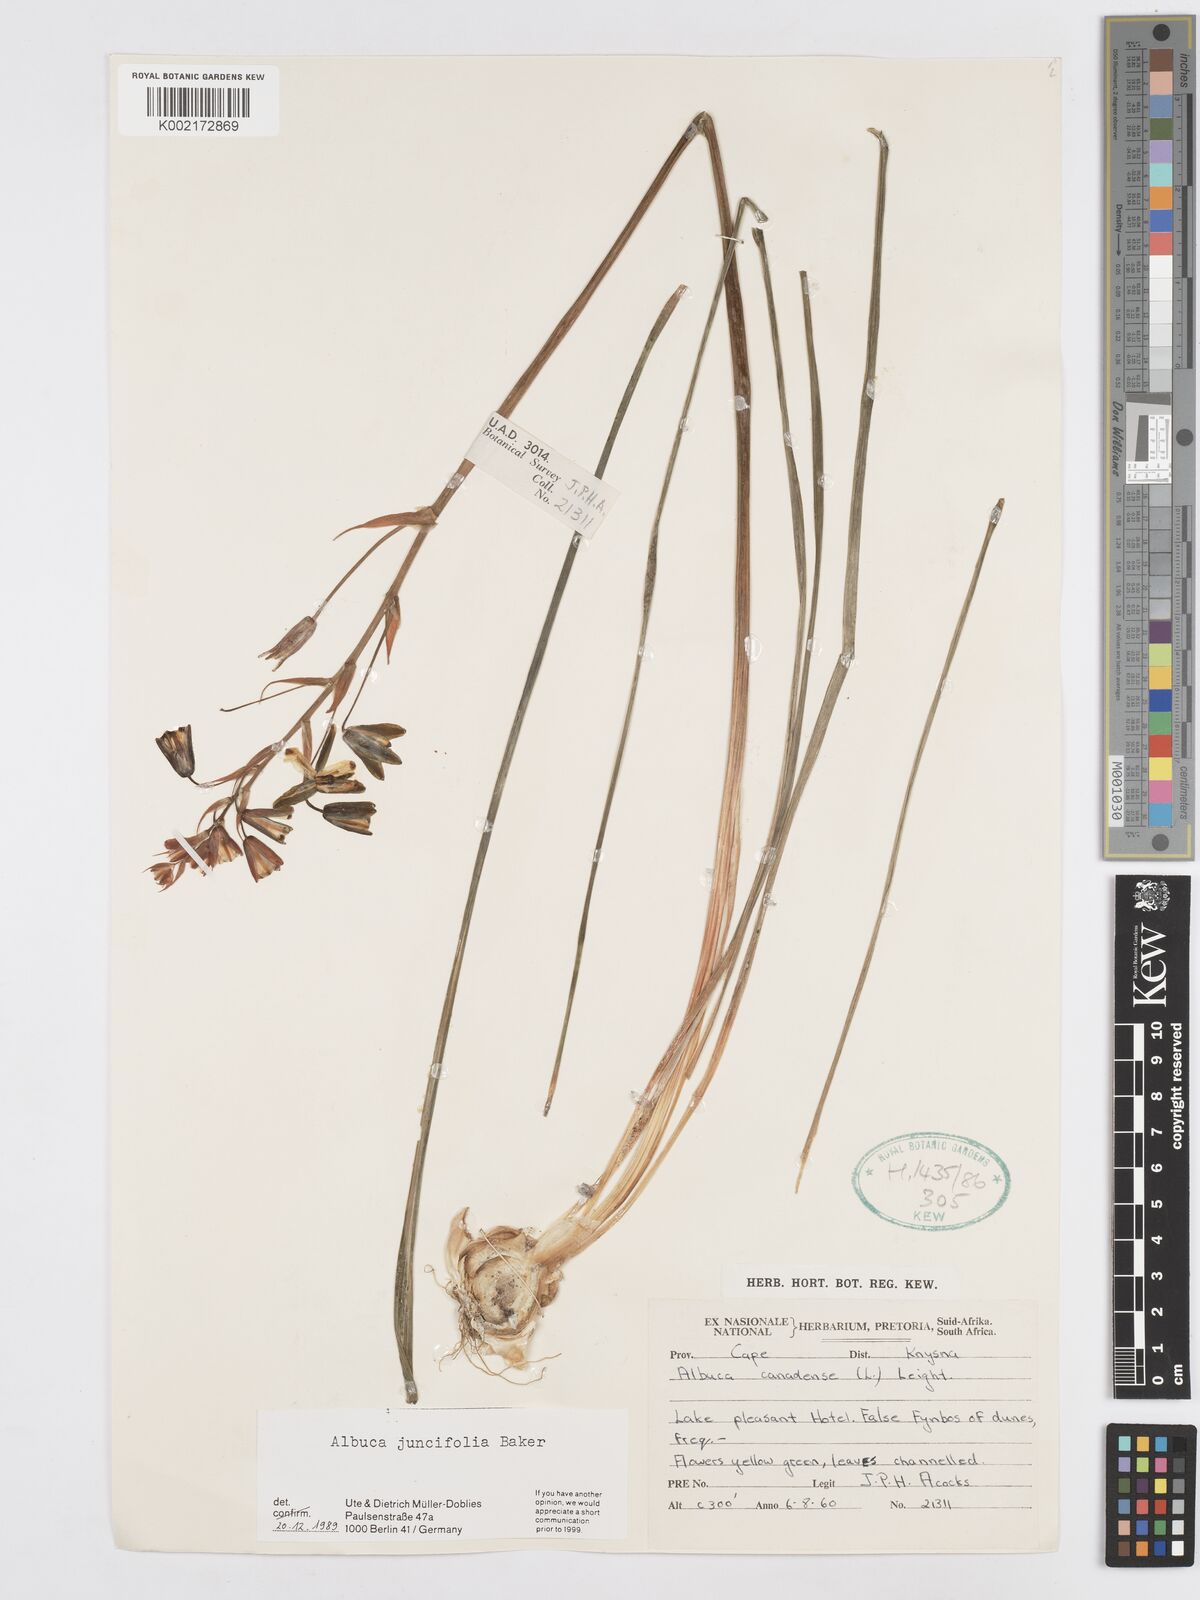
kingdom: Plantae
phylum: Tracheophyta
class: Liliopsida
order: Asparagales
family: Asparagaceae
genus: Albuca
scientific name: Albuca juncifolia
